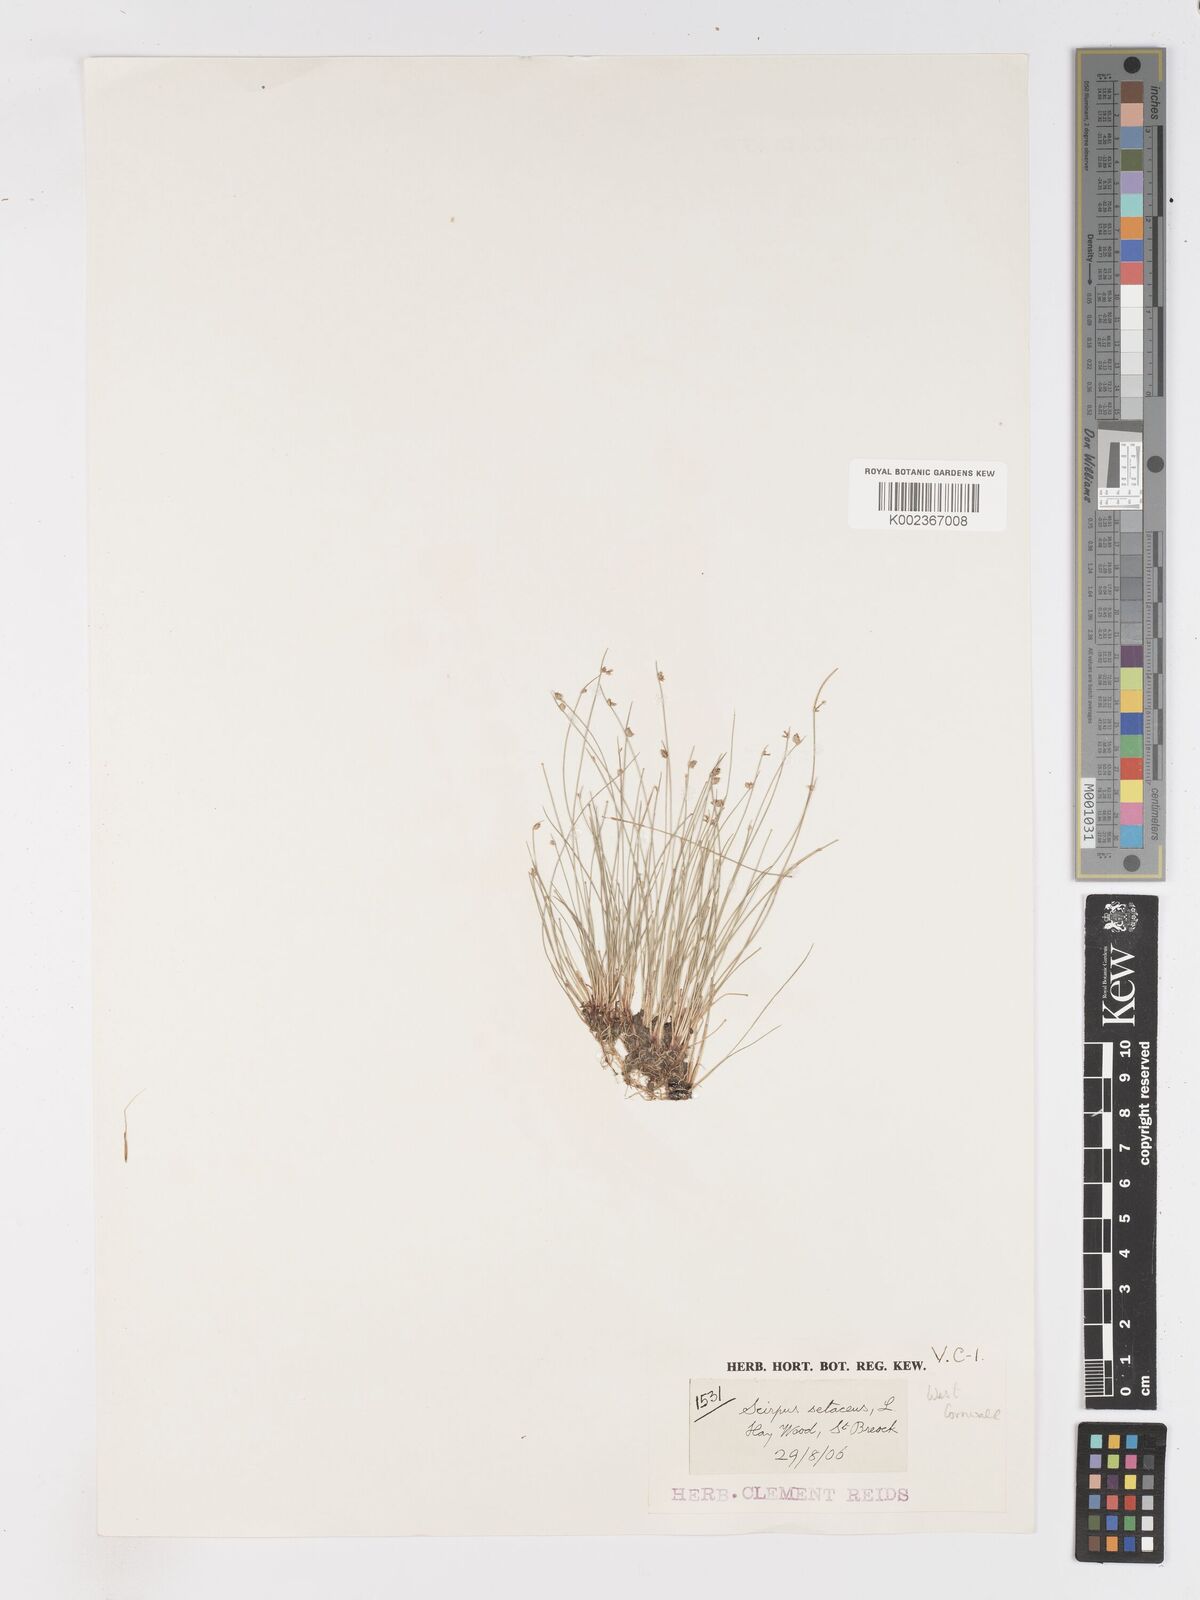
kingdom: Plantae
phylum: Tracheophyta
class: Liliopsida
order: Poales
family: Cyperaceae
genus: Isolepis
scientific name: Isolepis setacea
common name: Bristle club-rush
